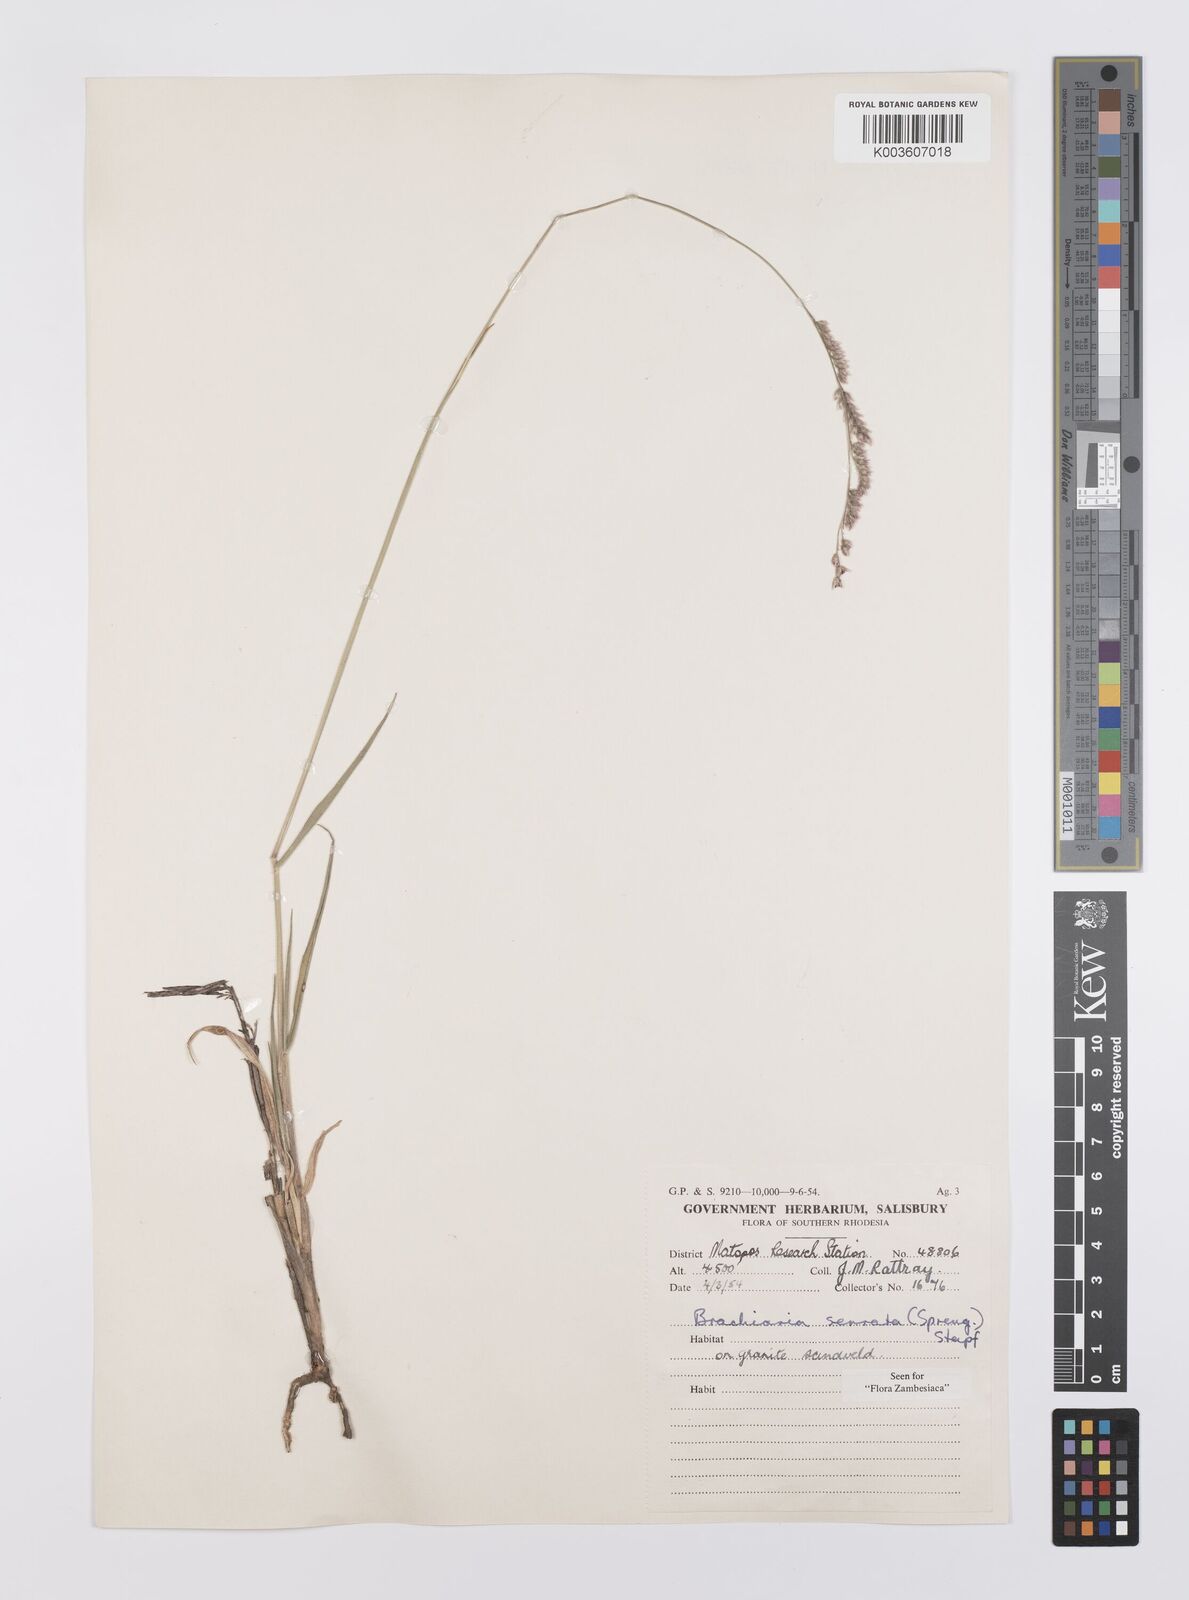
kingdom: Plantae
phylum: Tracheophyta
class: Liliopsida
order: Poales
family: Poaceae
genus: Urochloa
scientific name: Urochloa serrata
